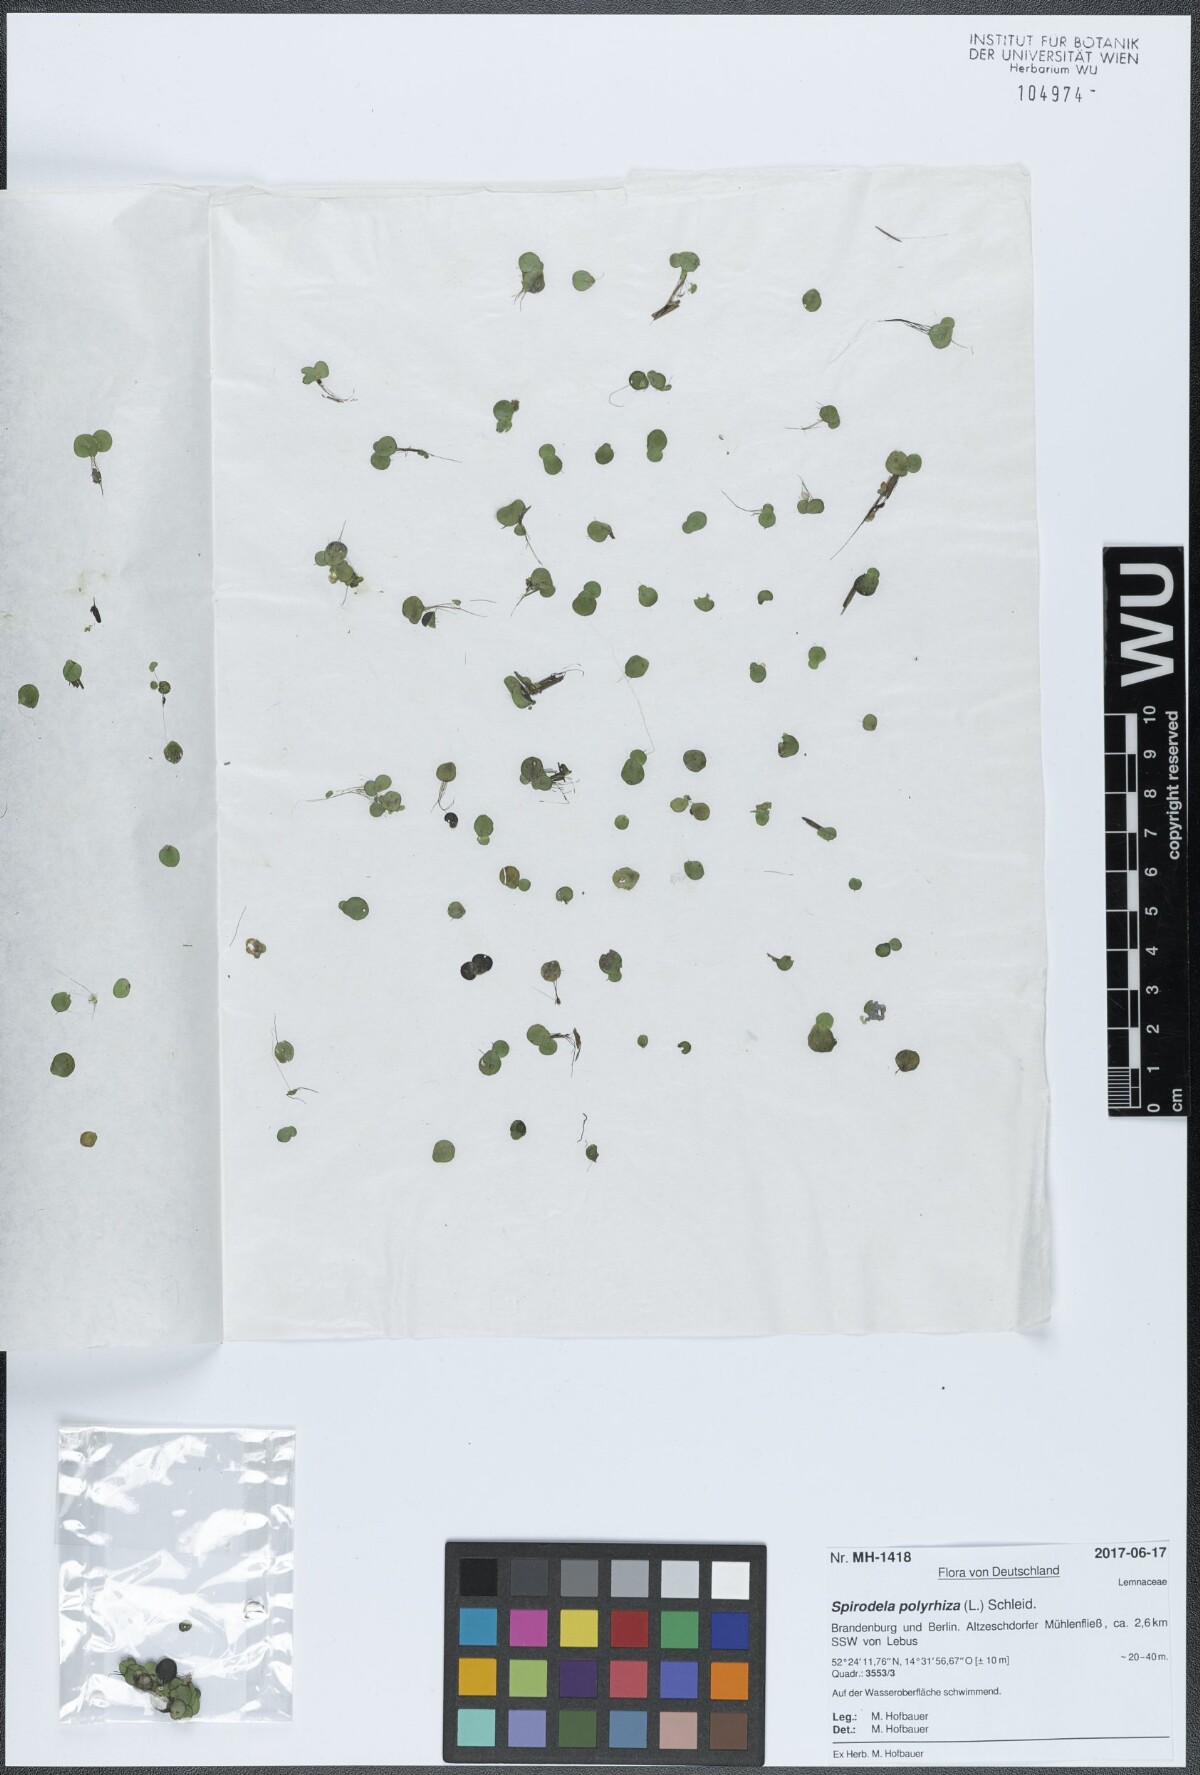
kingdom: Plantae
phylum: Tracheophyta
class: Liliopsida
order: Alismatales
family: Araceae
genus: Spirodela
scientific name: Spirodela polyrhiza
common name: Great duckweed
